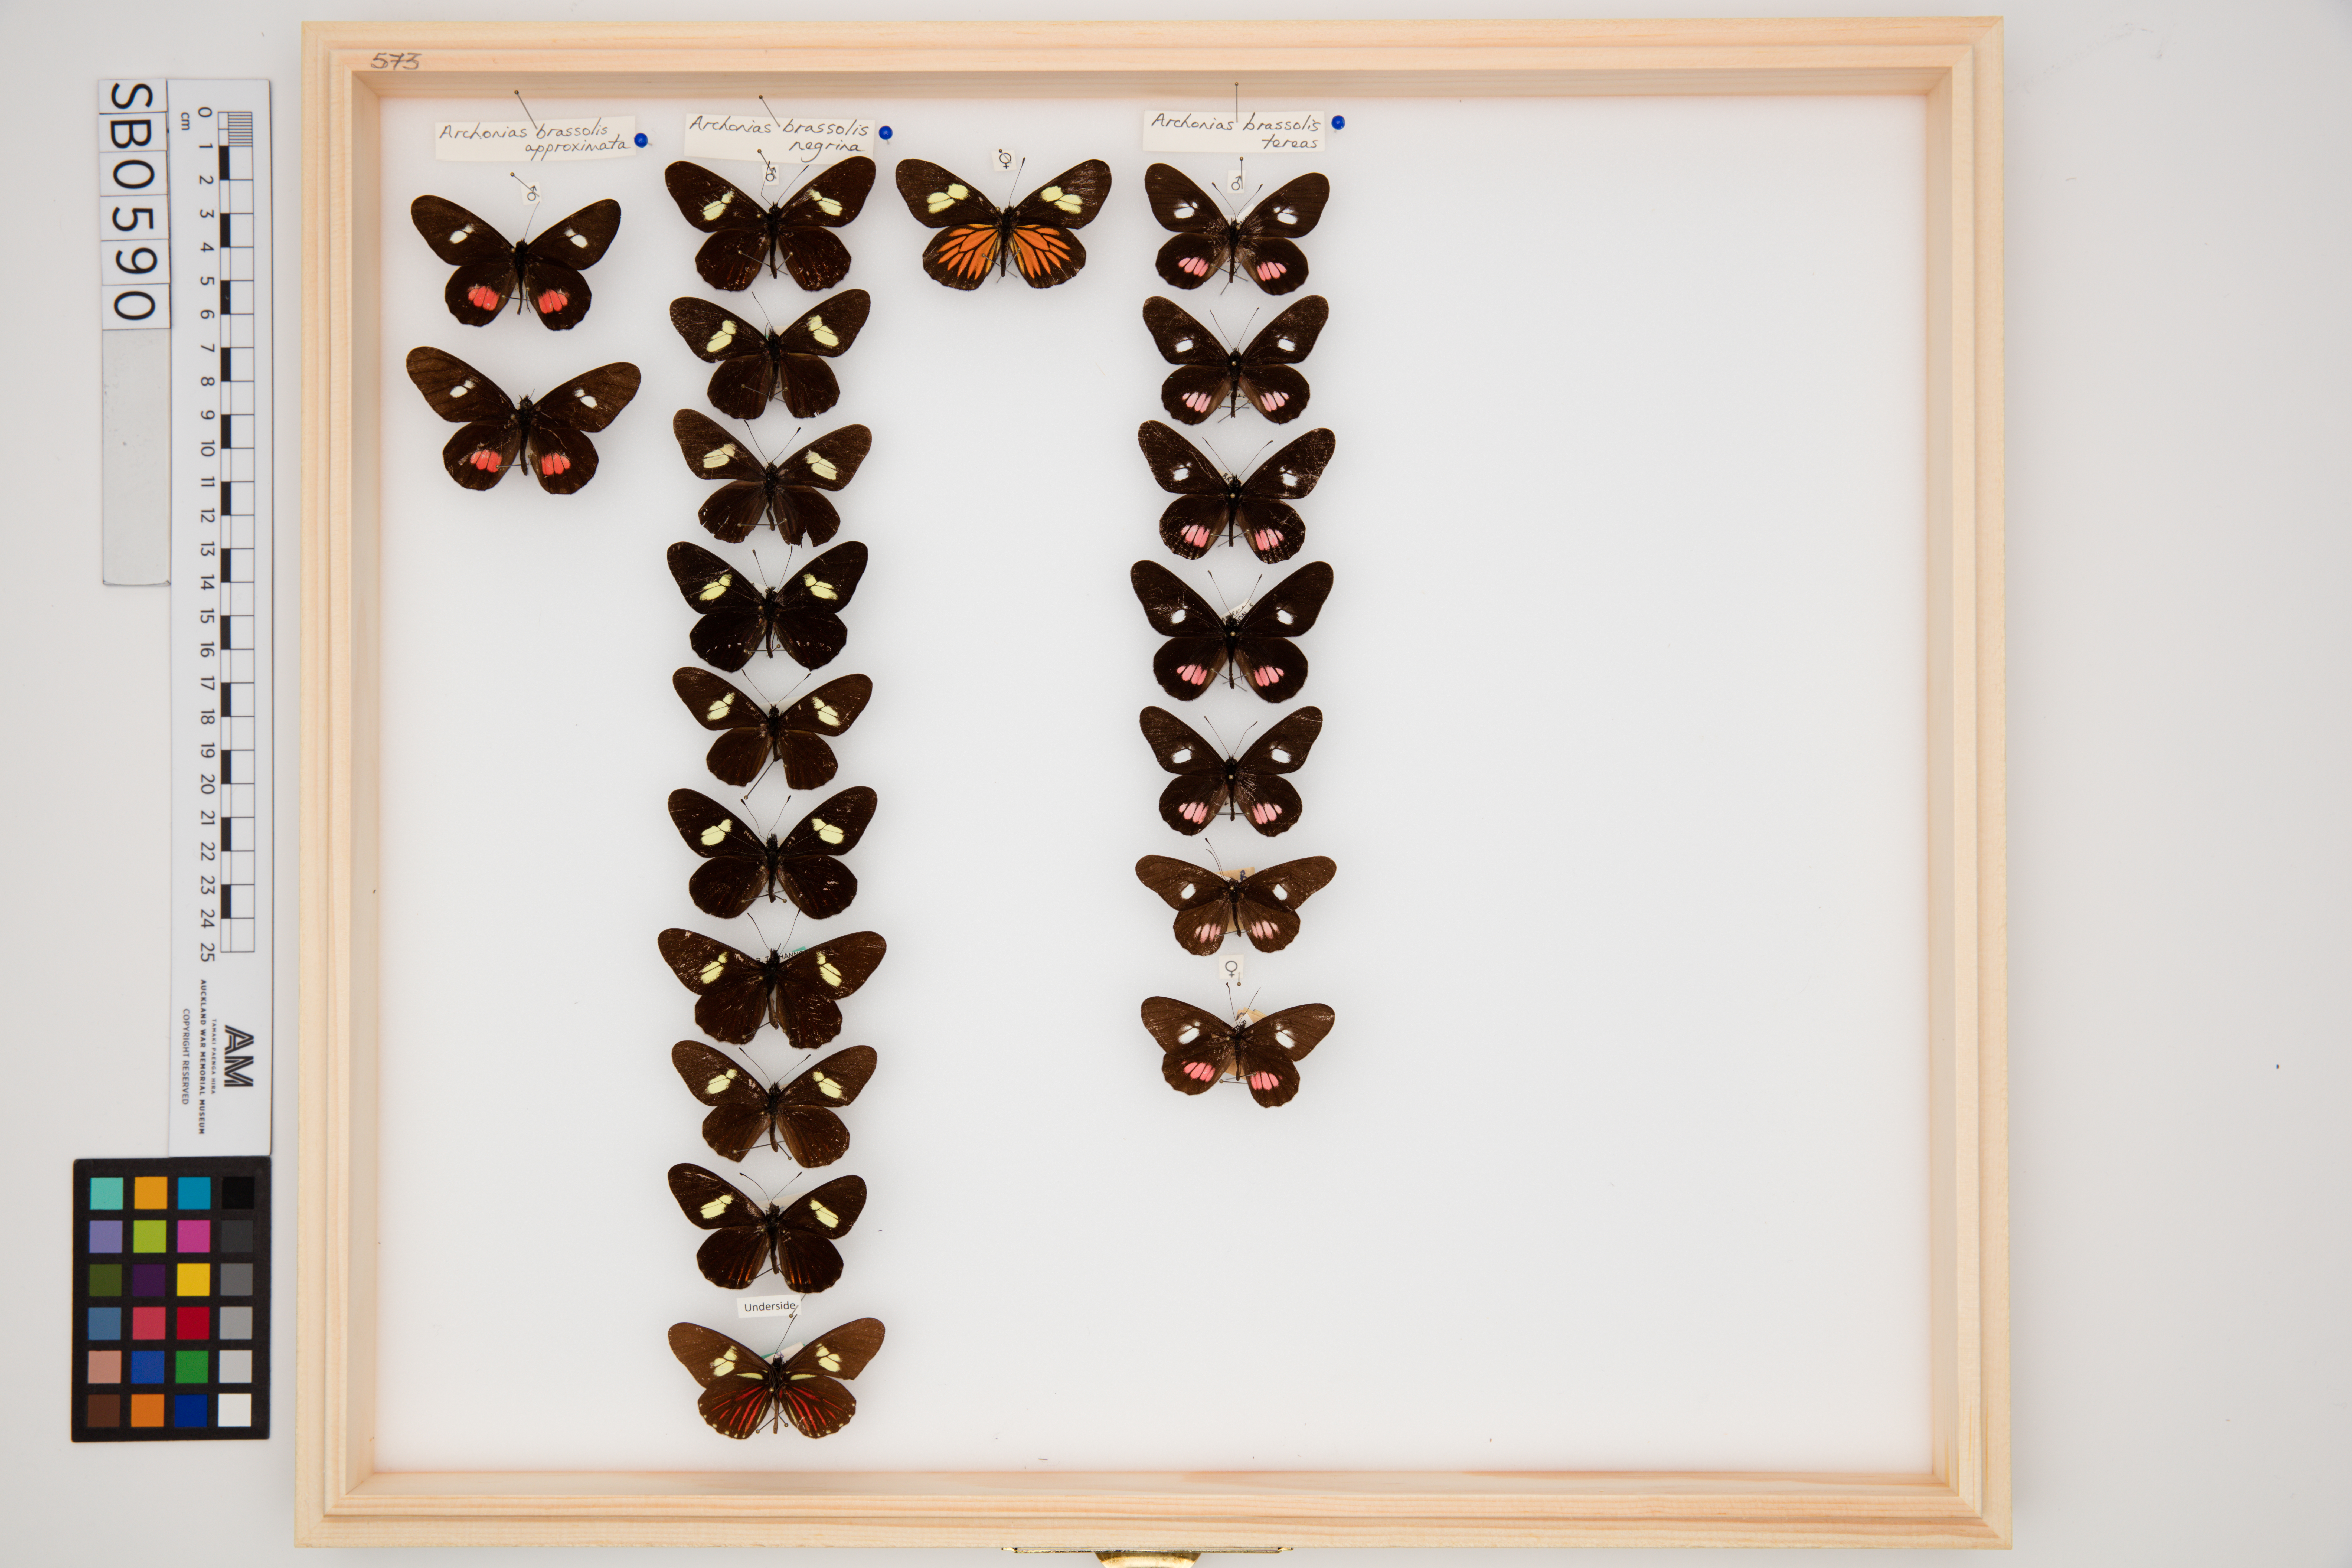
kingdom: Animalia
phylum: Arthropoda
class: Insecta
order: Lepidoptera
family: Pieridae
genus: Archonias
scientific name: Archonias brassolis
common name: Cattleheart white
